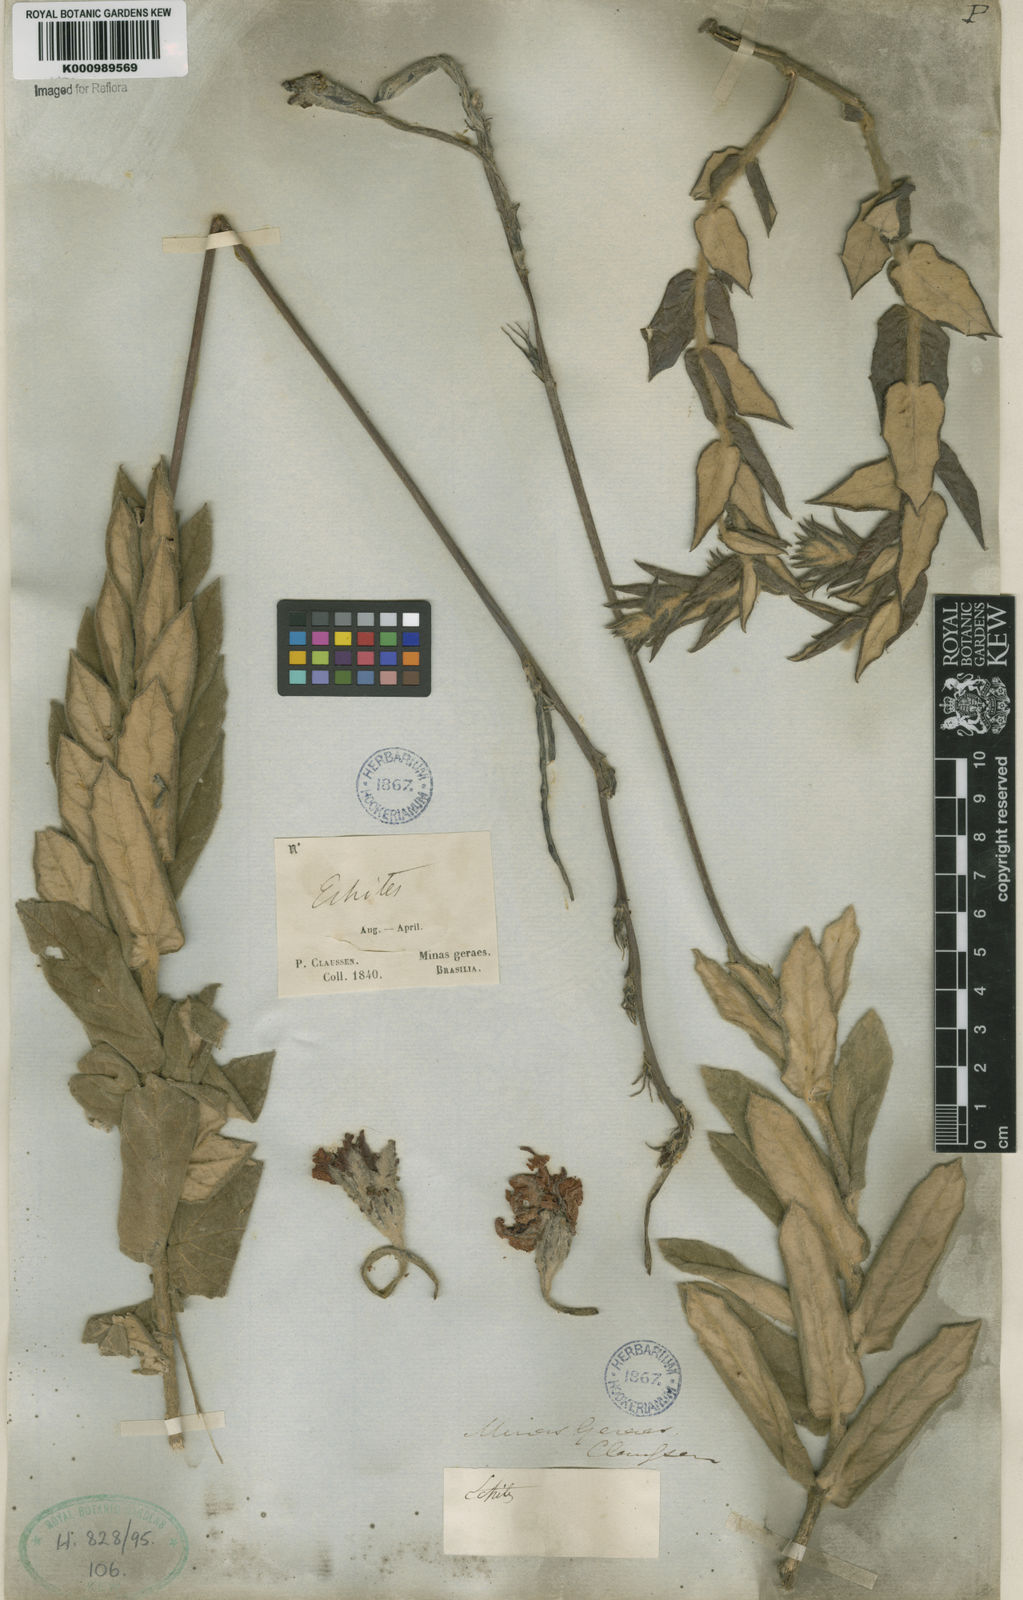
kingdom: Plantae
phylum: Tracheophyta
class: Magnoliopsida
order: Gentianales
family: Apocynaceae
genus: Mandevilla
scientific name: Mandevilla
